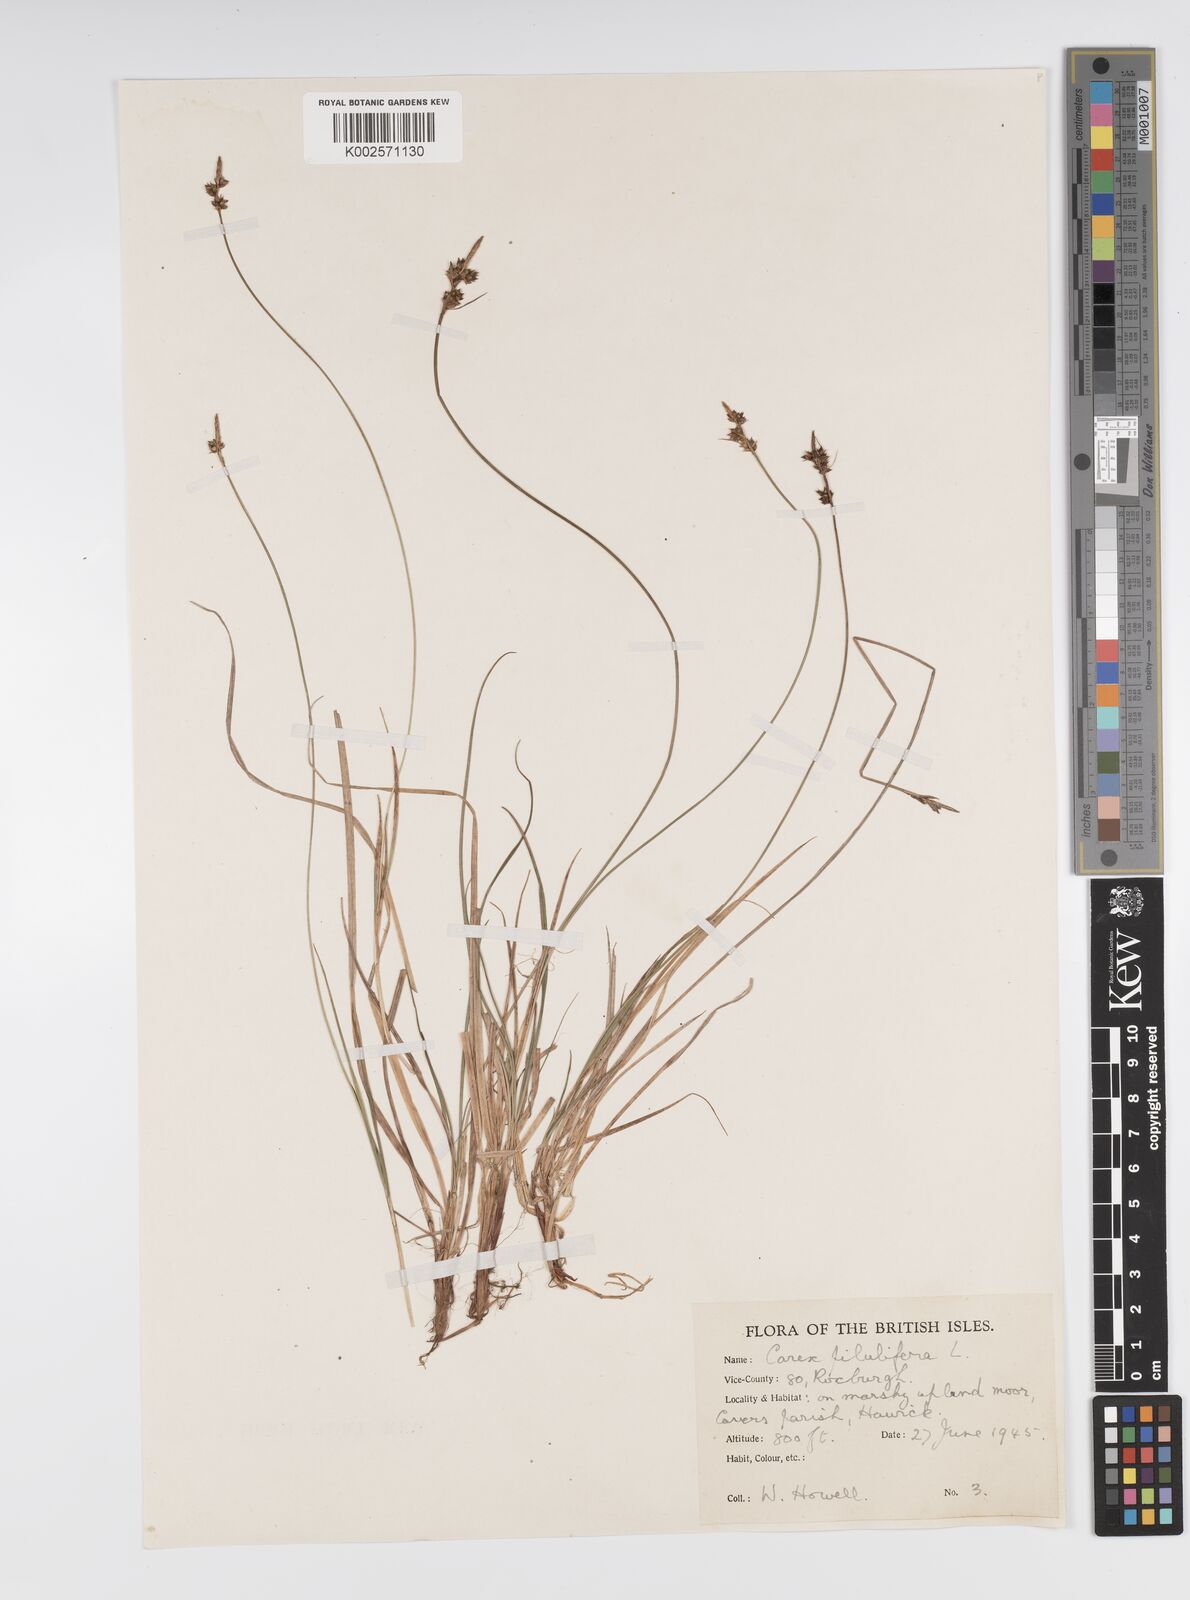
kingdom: Plantae
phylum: Tracheophyta
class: Liliopsida
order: Poales
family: Cyperaceae
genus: Carex
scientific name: Carex pilulifera
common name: Pill sedge
